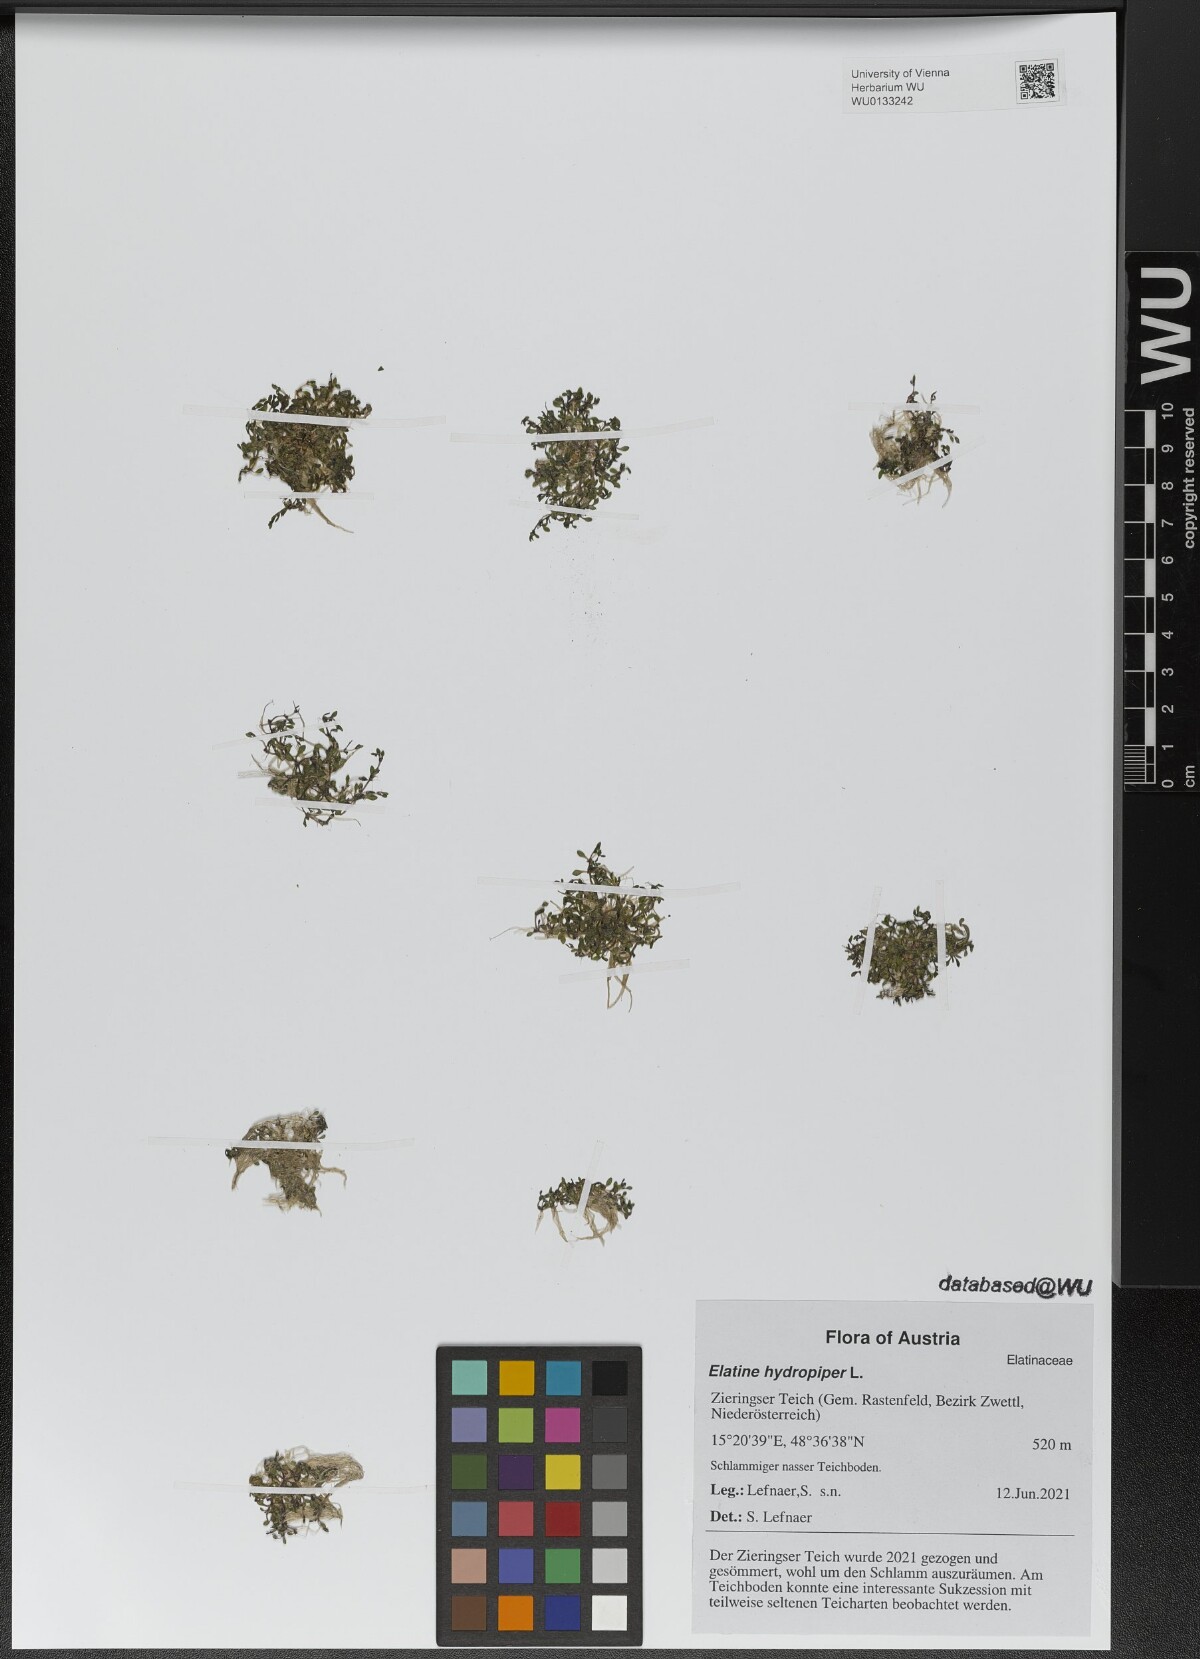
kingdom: Plantae
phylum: Tracheophyta
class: Magnoliopsida
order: Malpighiales
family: Elatinaceae
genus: Elatine
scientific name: Elatine hydropiper
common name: Eight-stamened waterwort
